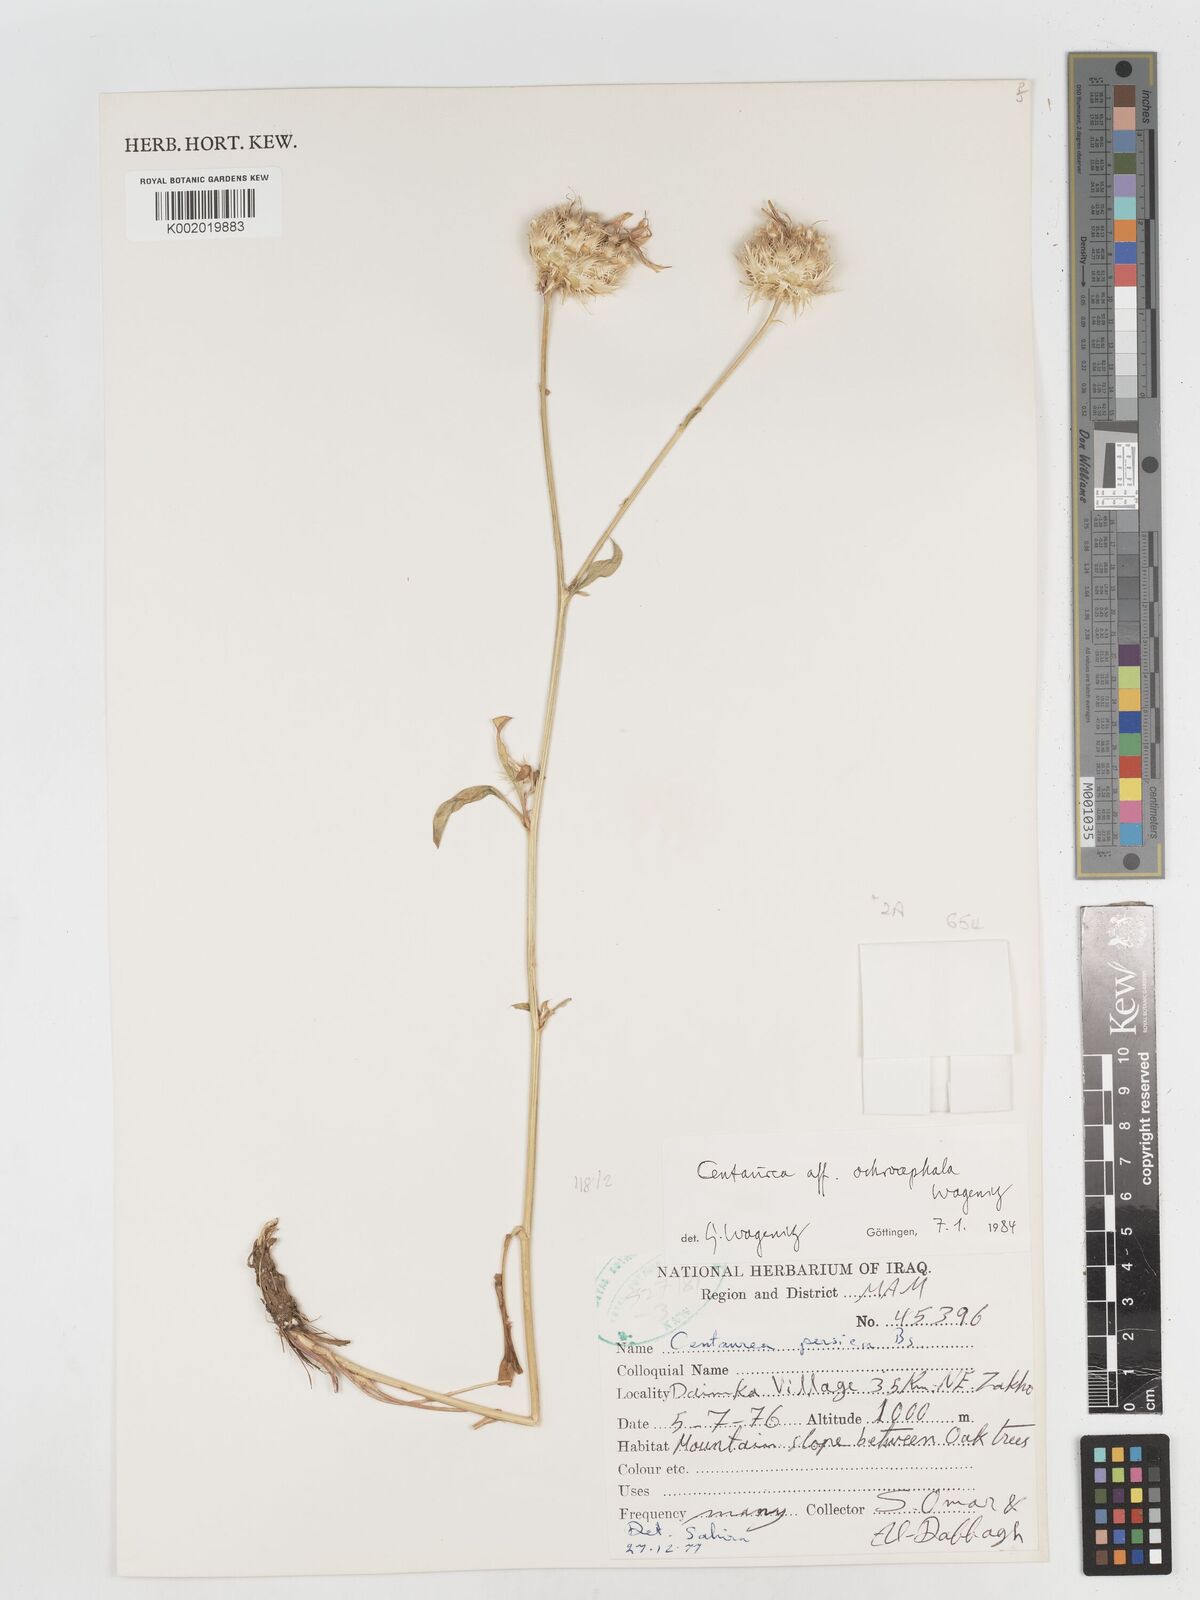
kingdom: Plantae
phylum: Tracheophyta
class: Magnoliopsida
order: Asterales
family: Asteraceae
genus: Centaurea
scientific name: Centaurea ochrocephala
